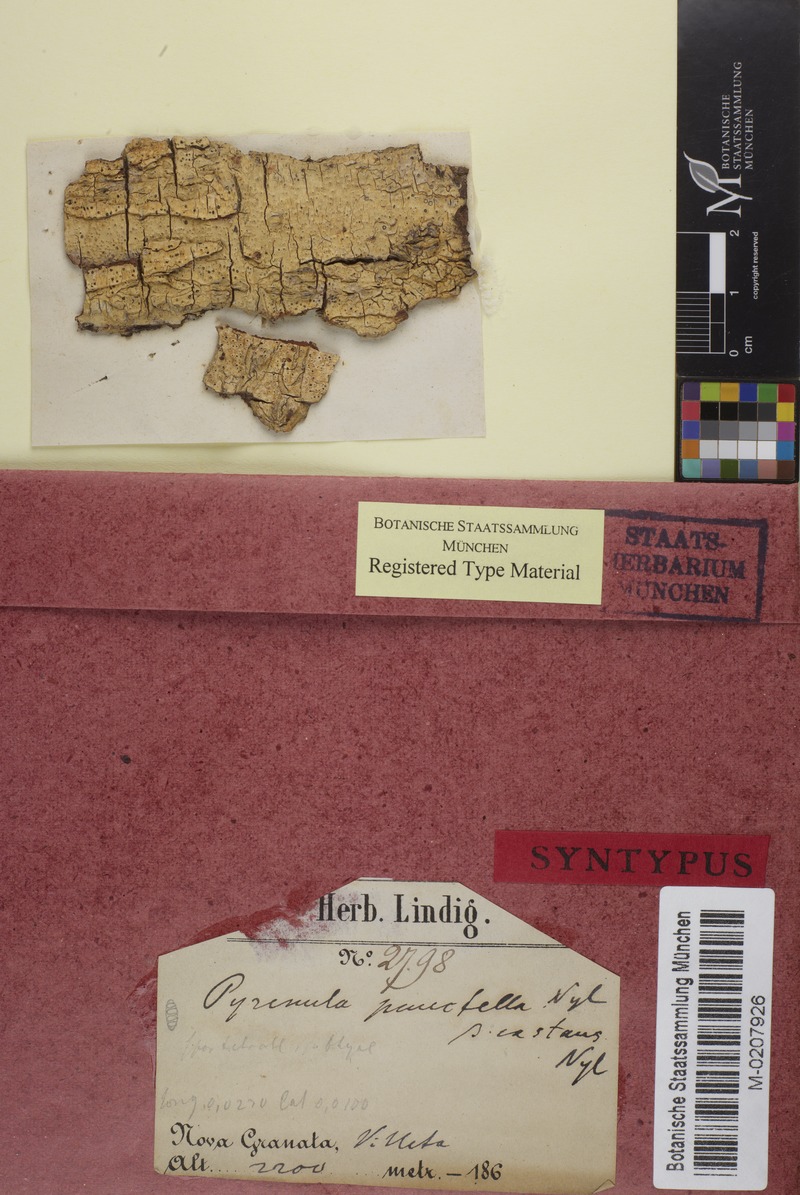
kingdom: Fungi
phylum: Ascomycota
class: Eurotiomycetes
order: Pyrenulales
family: Pyrenulaceae
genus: Pyrenula
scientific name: Pyrenula pinguis
